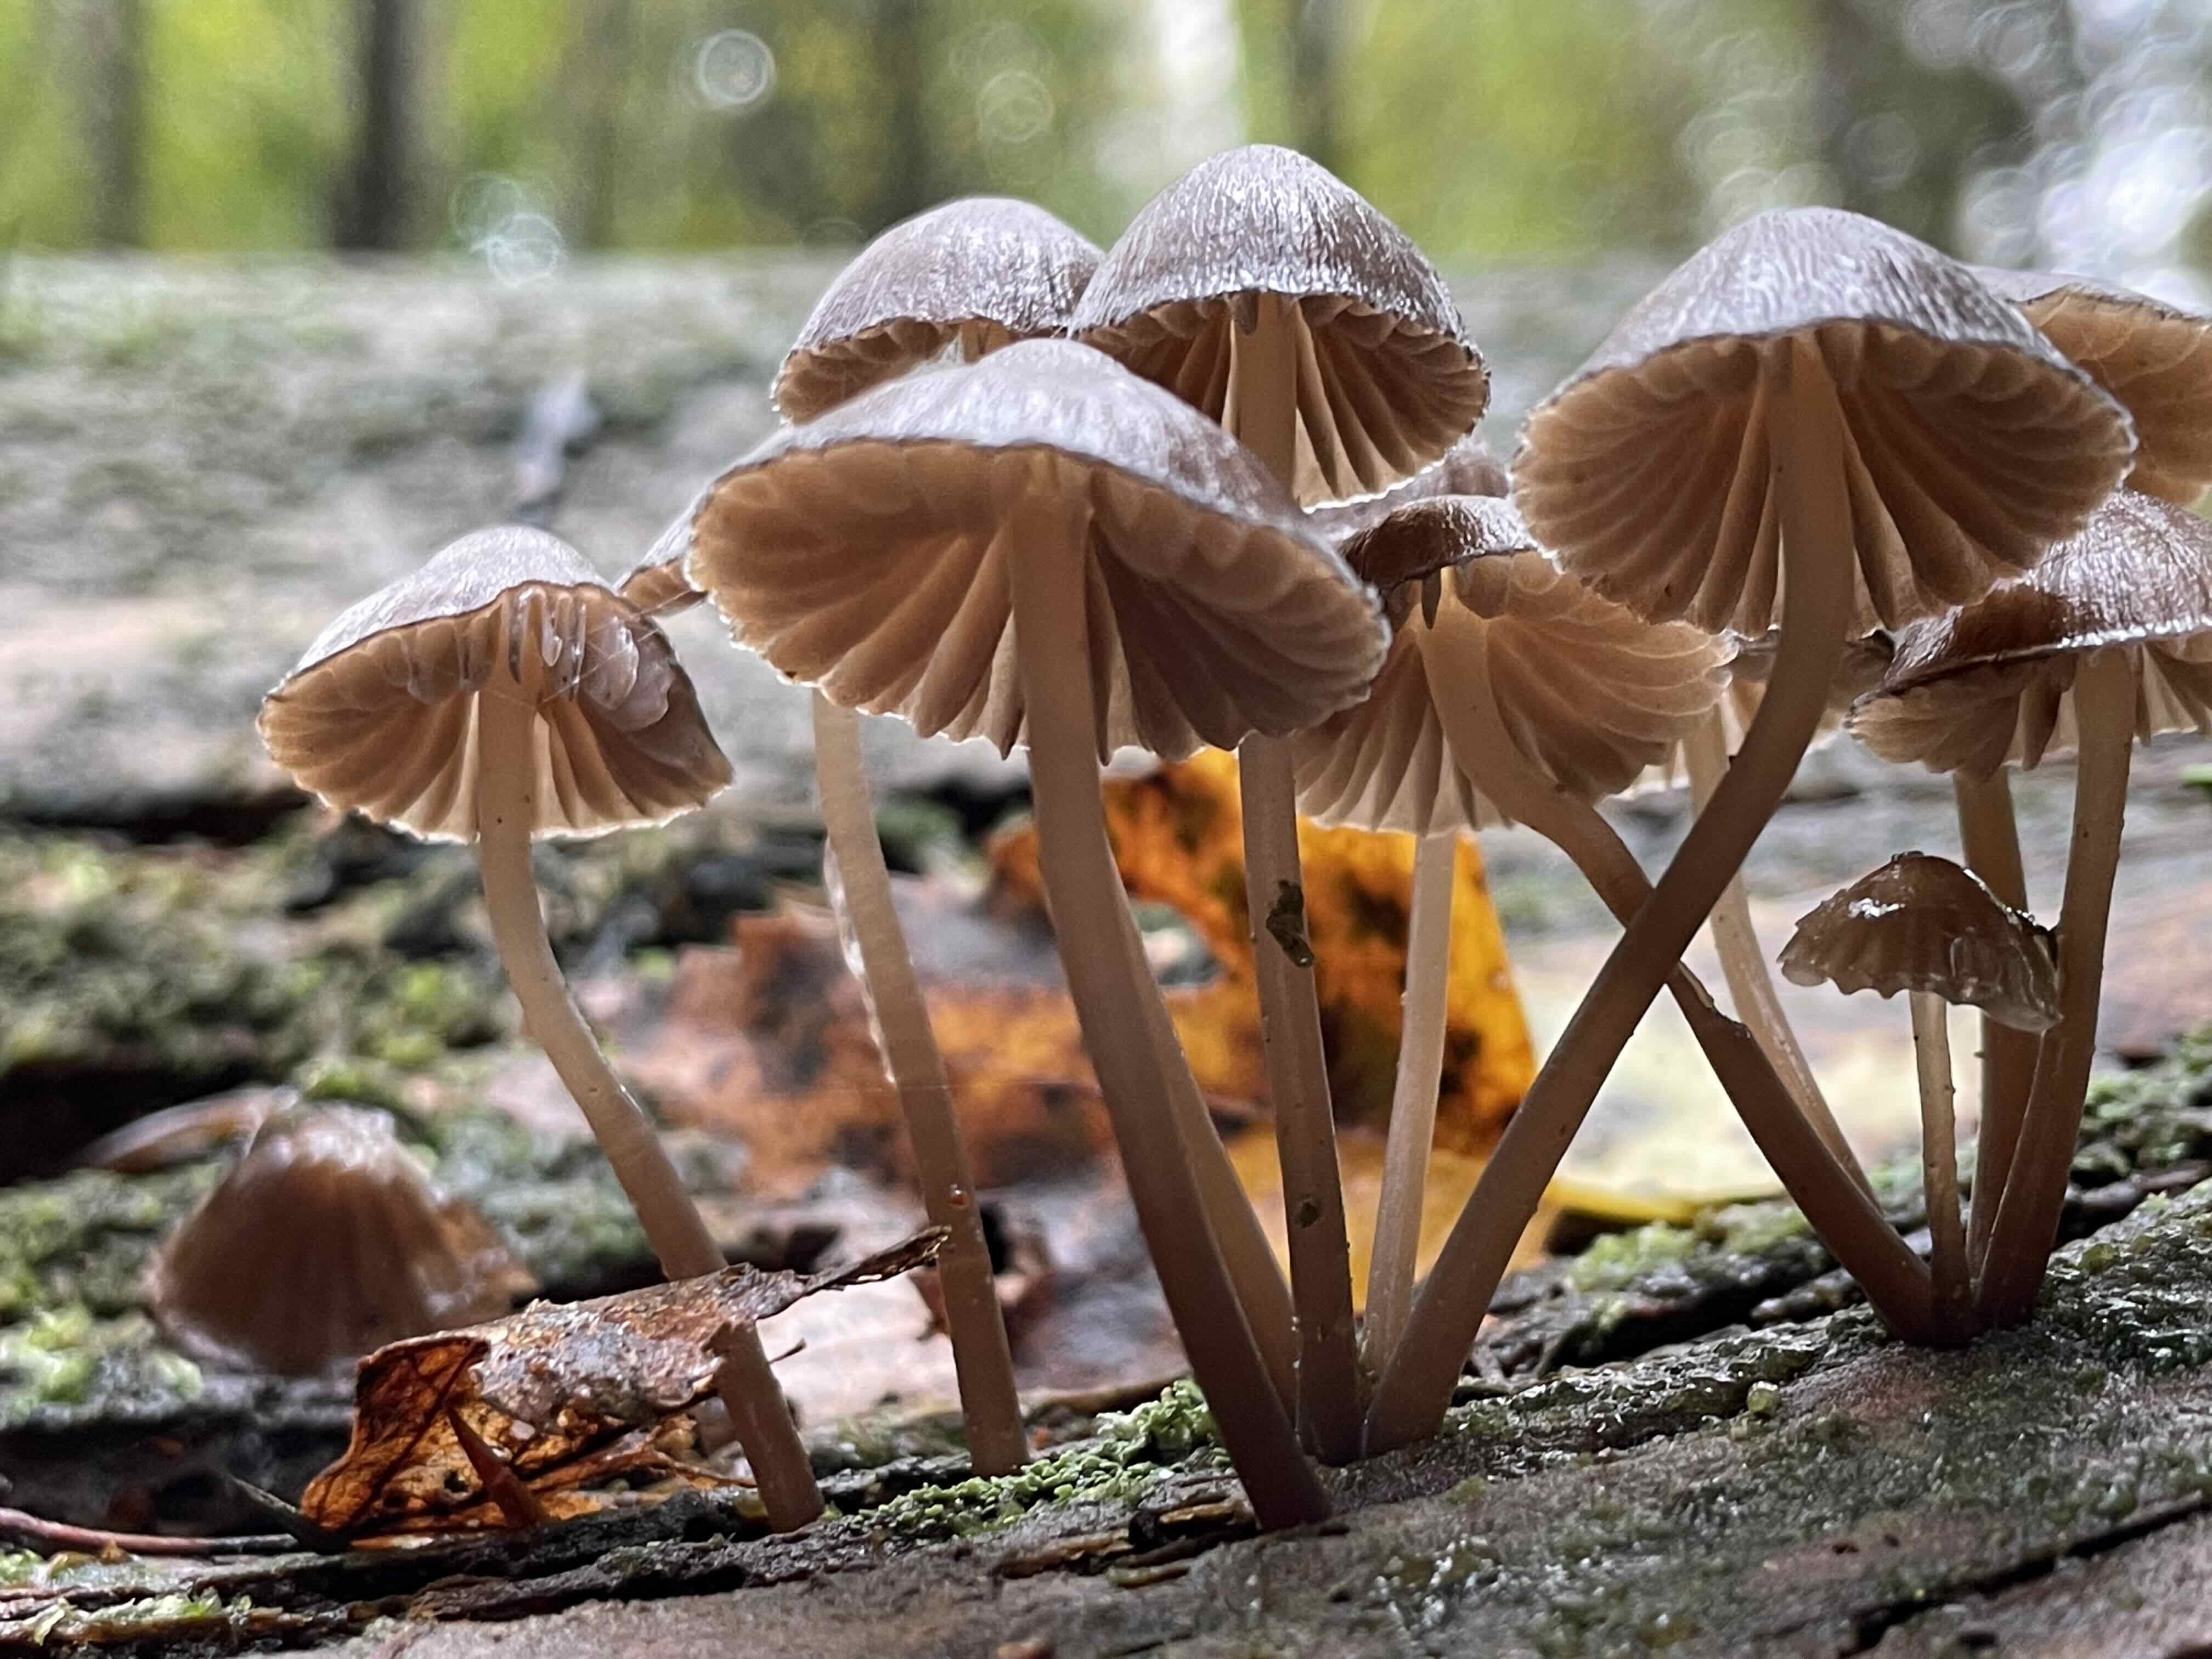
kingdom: Fungi
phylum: Basidiomycota
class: Agaricomycetes
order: Agaricales
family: Mycenaceae
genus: Mycena
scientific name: Mycena stipata
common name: stinkende huesvamp
